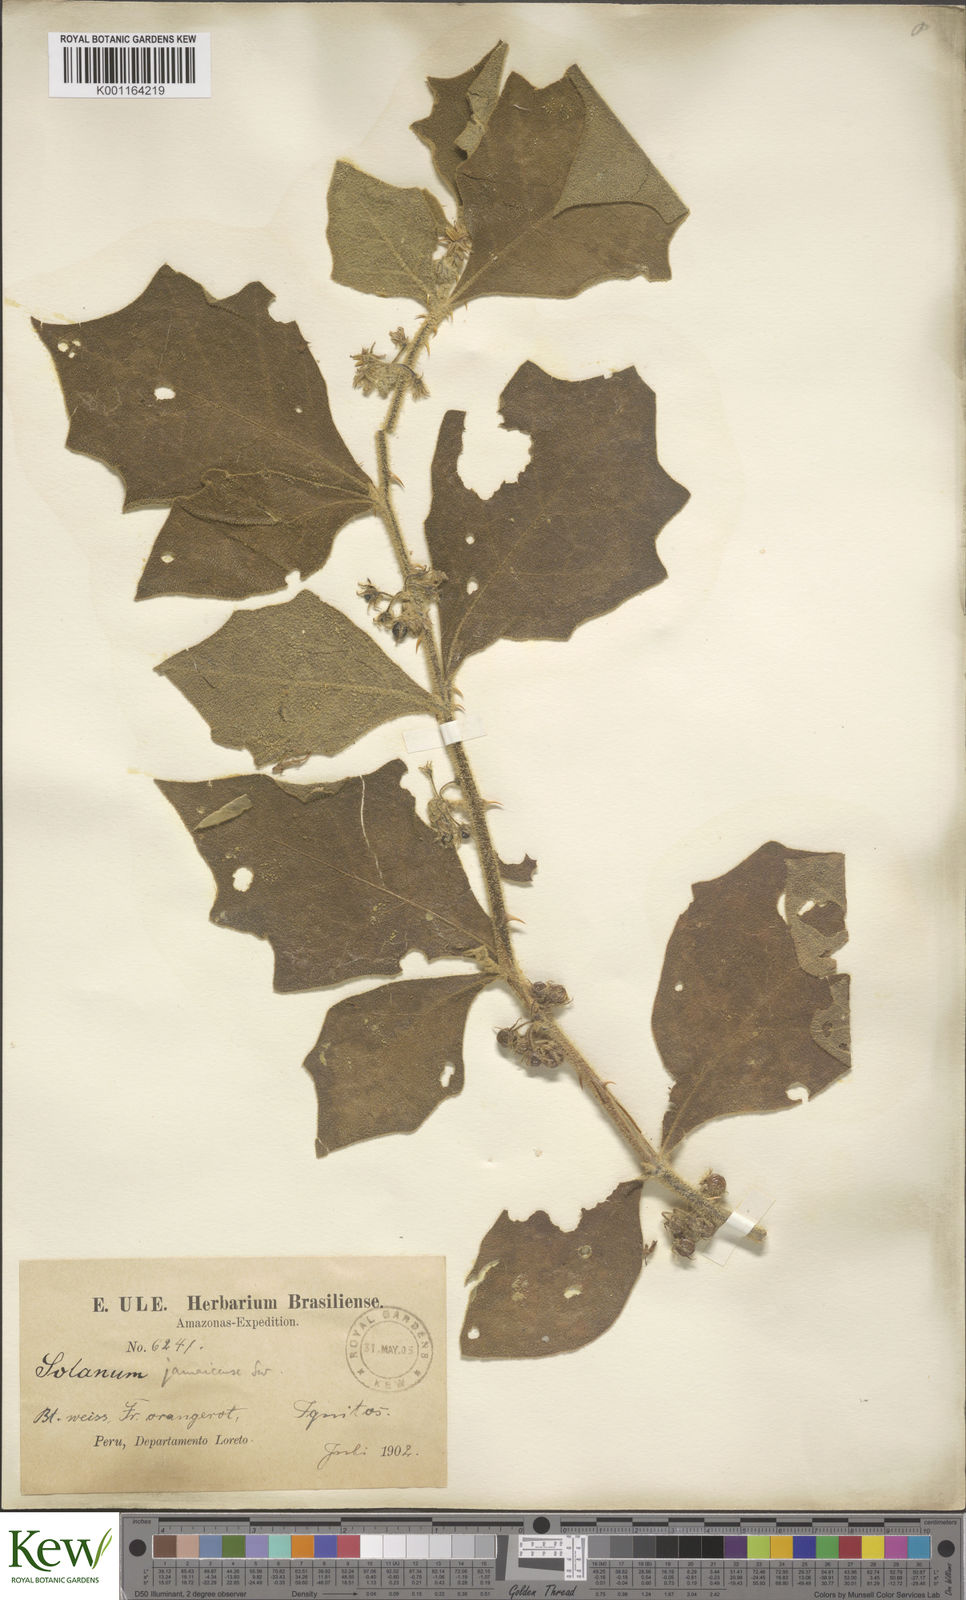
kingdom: Plantae
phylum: Tracheophyta
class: Magnoliopsida
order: Solanales
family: Solanaceae
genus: Solanum
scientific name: Solanum jamaicense
